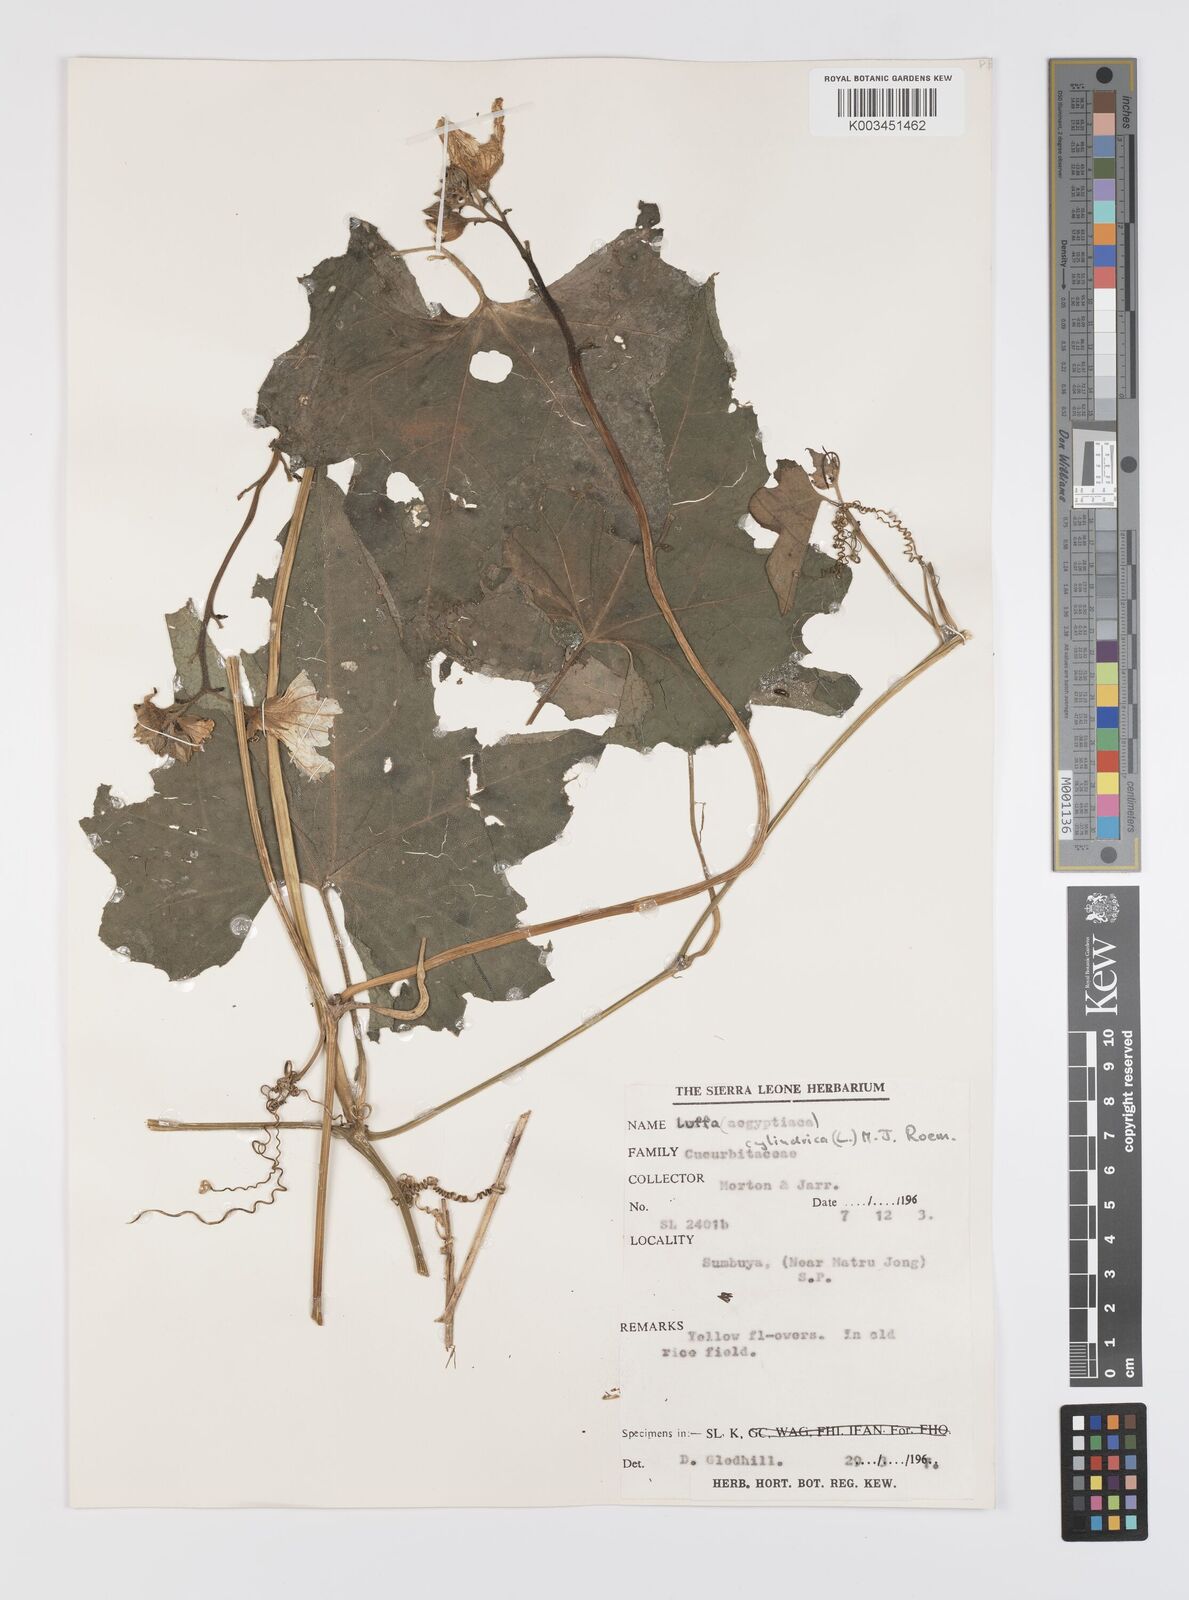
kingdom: Plantae
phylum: Tracheophyta
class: Magnoliopsida
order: Cucurbitales
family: Cucurbitaceae
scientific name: Cucurbitaceae
